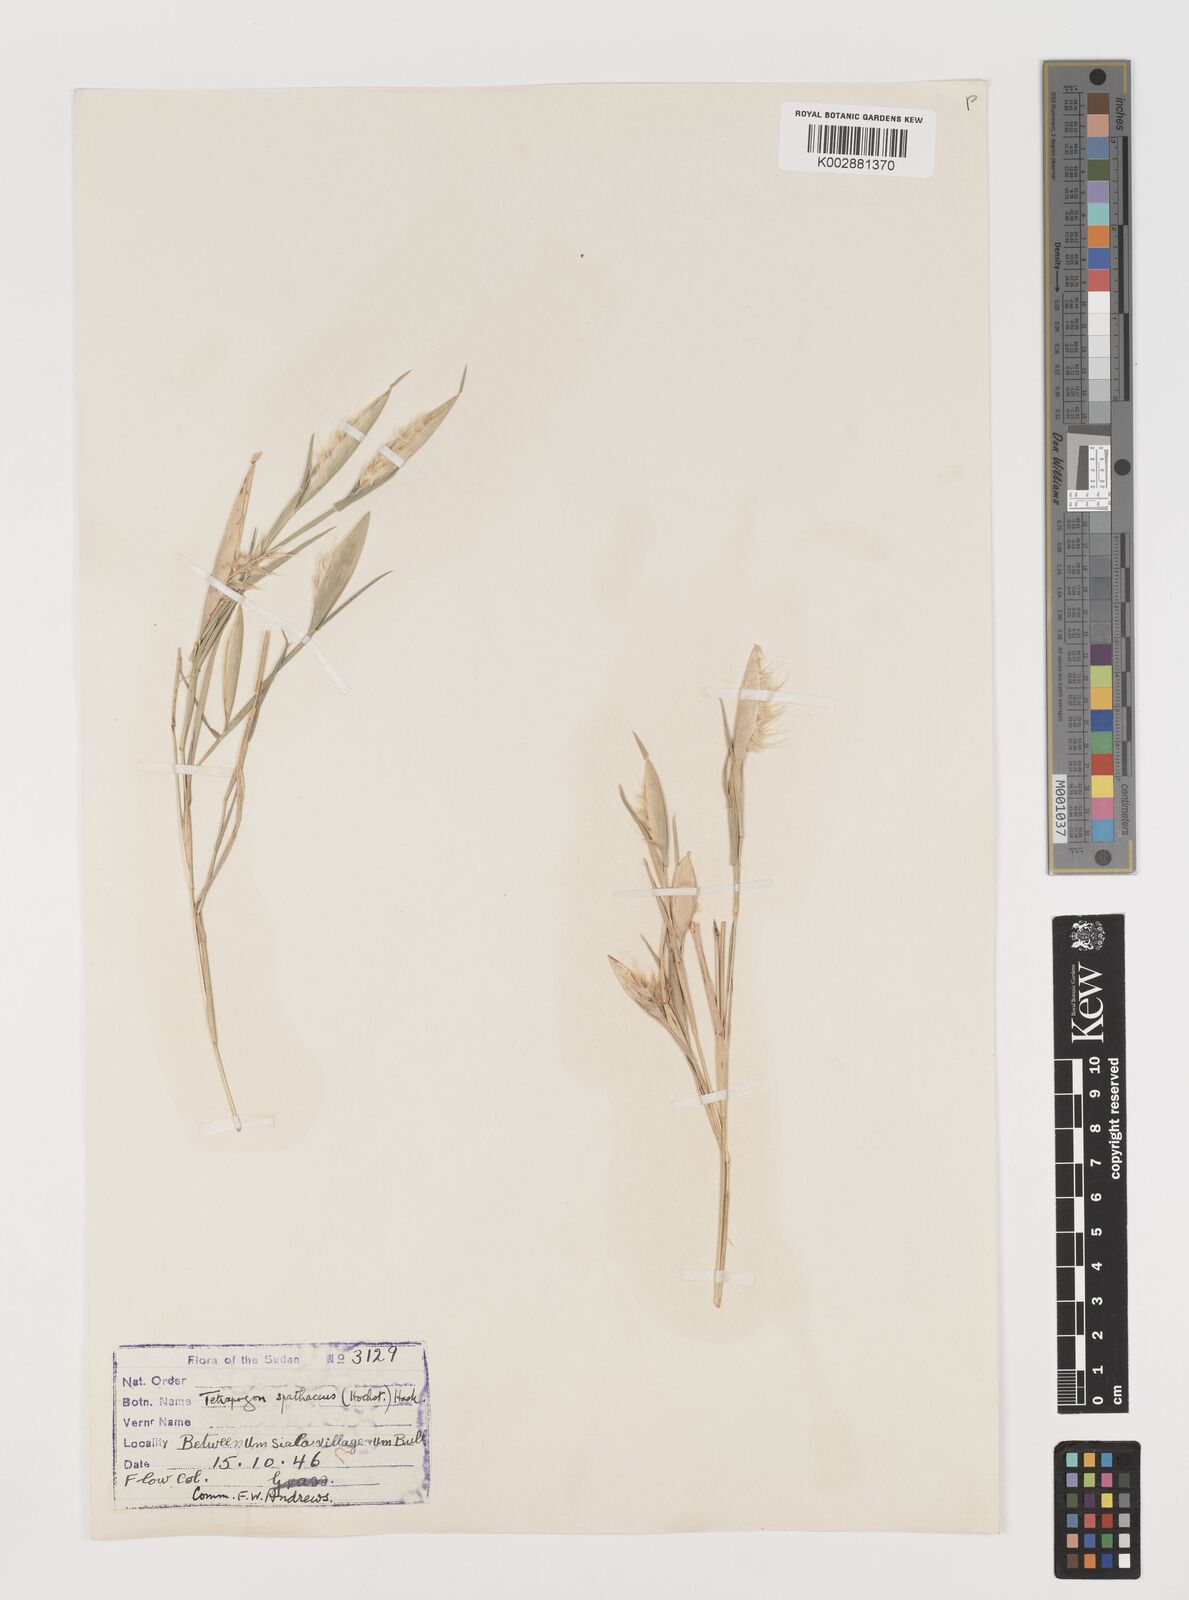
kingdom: Plantae
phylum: Tracheophyta
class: Liliopsida
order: Poales
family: Poaceae
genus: Tetrapogon
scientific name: Tetrapogon cenchriformis
